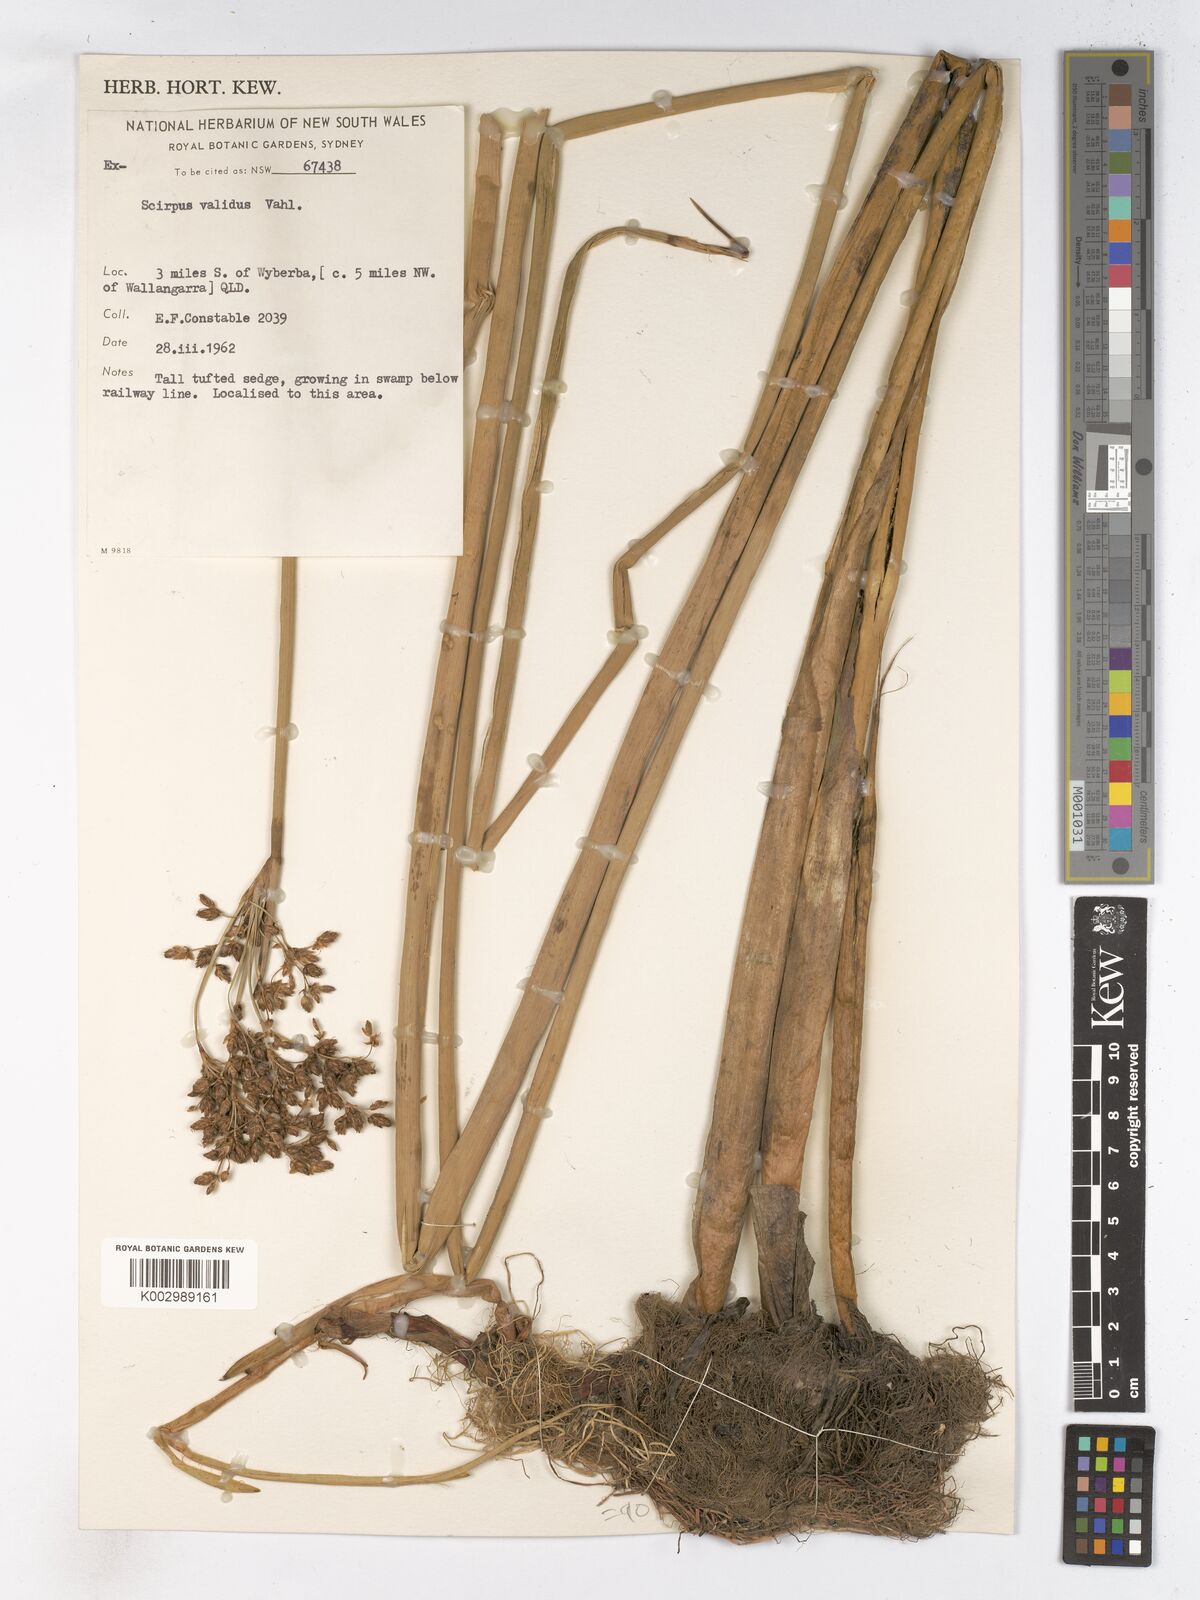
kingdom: Plantae
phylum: Tracheophyta
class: Liliopsida
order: Poales
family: Cyperaceae
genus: Schoenoplectus
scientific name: Schoenoplectus lacustris
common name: Common club-rush
